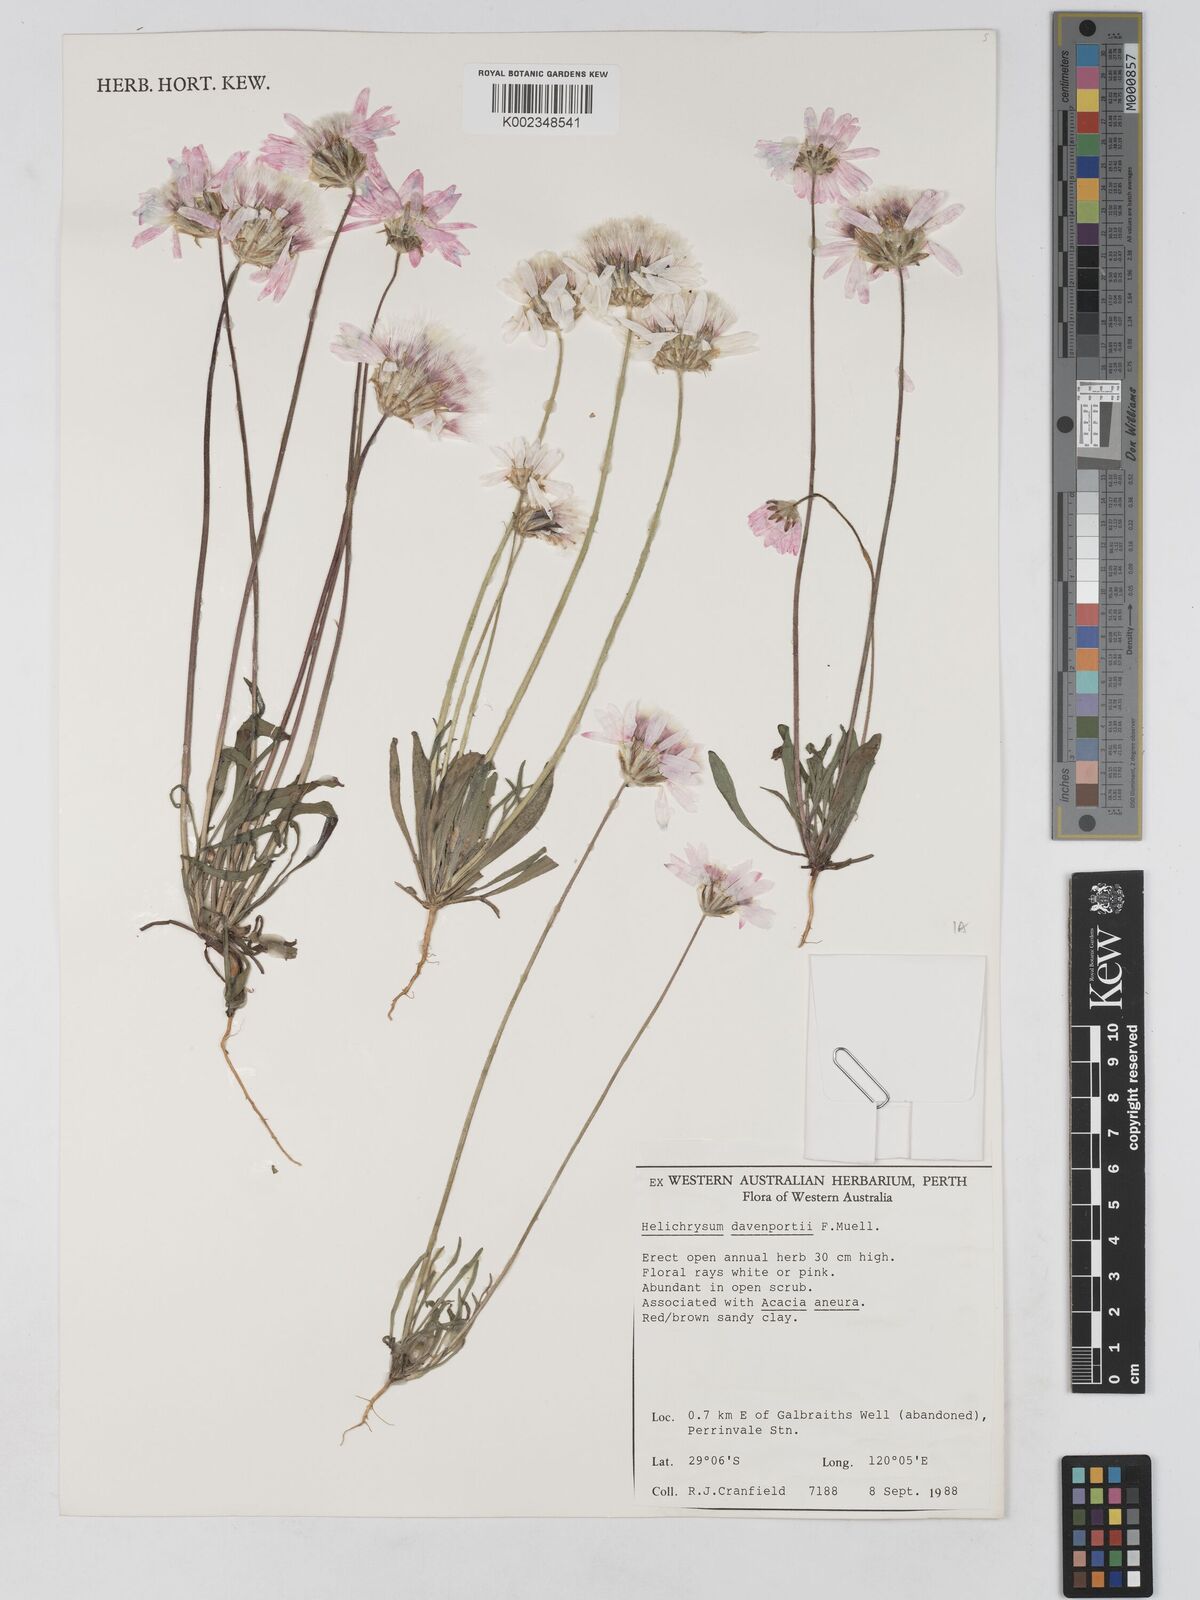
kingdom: Plantae
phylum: Tracheophyta
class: Magnoliopsida
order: Asterales
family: Asteraceae
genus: Lawrencella
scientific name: Lawrencella davenportii
